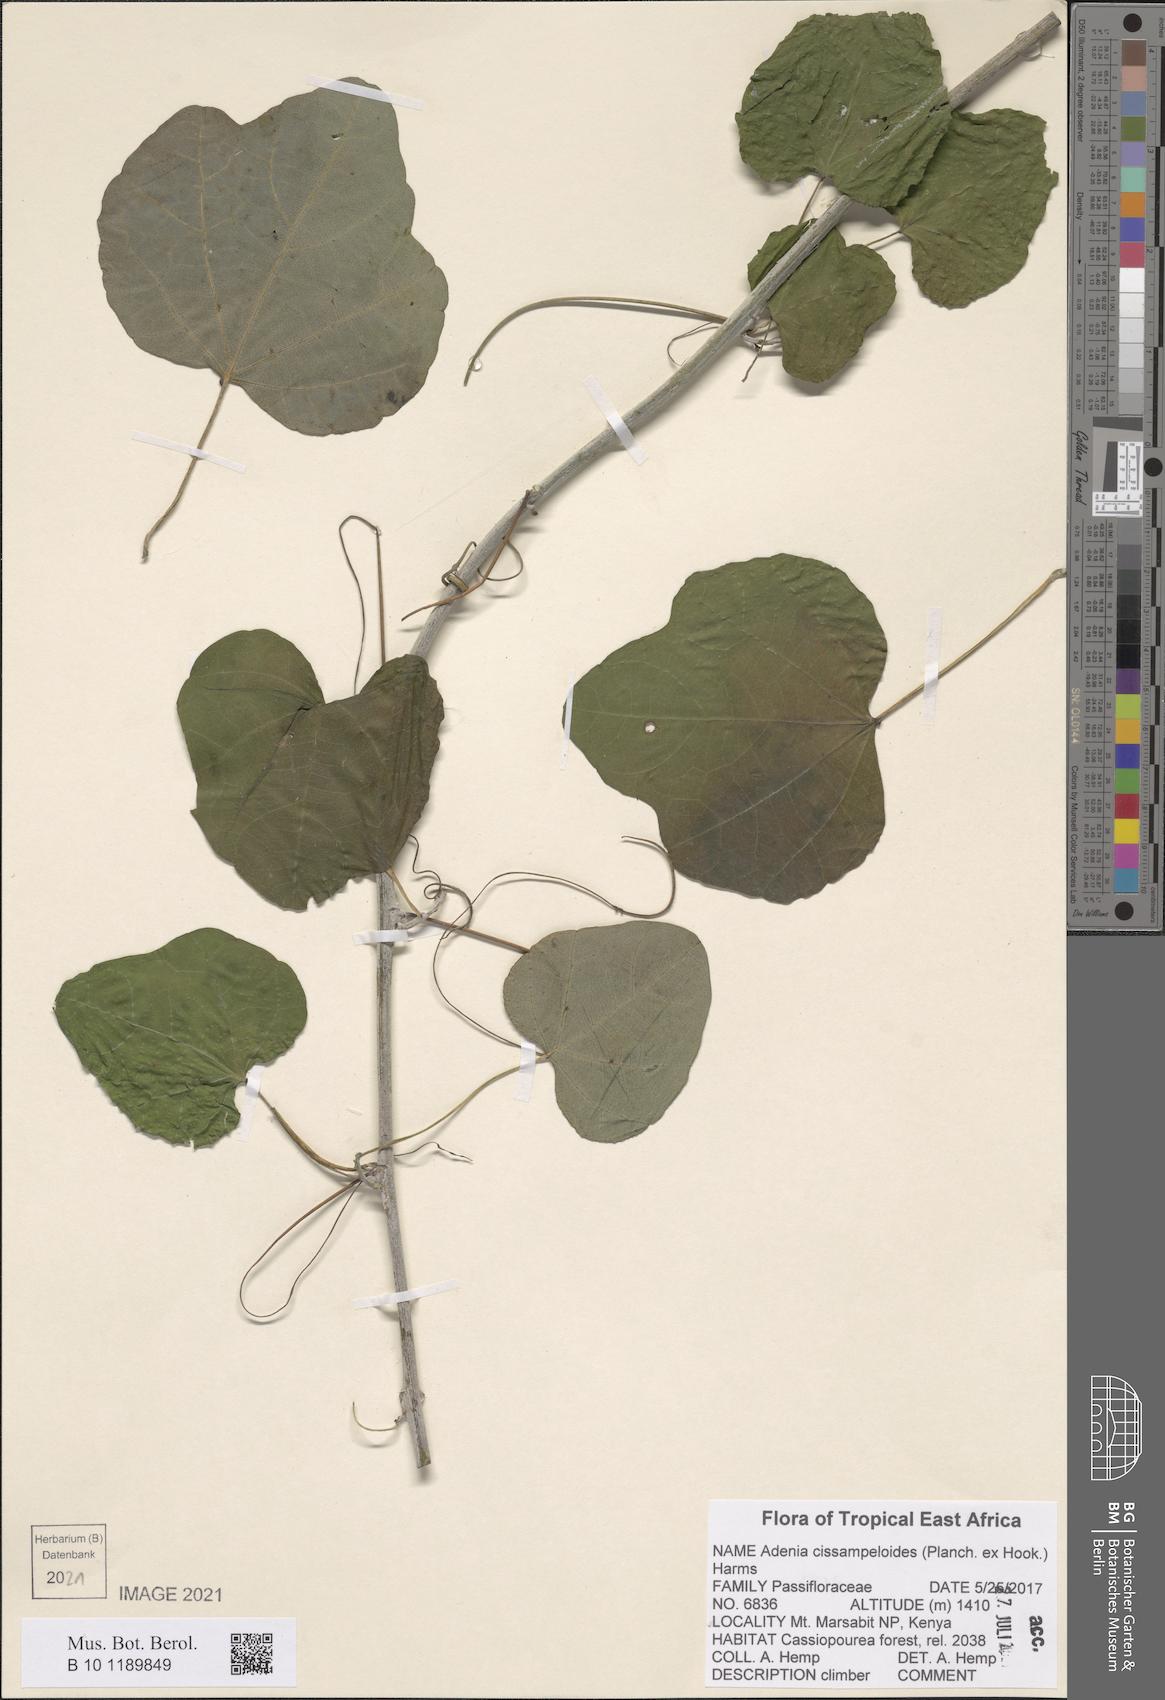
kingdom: Plantae
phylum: Tracheophyta
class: Magnoliopsida
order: Malpighiales
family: Passifloraceae
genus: Adenia
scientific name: Adenia cissampeloides
